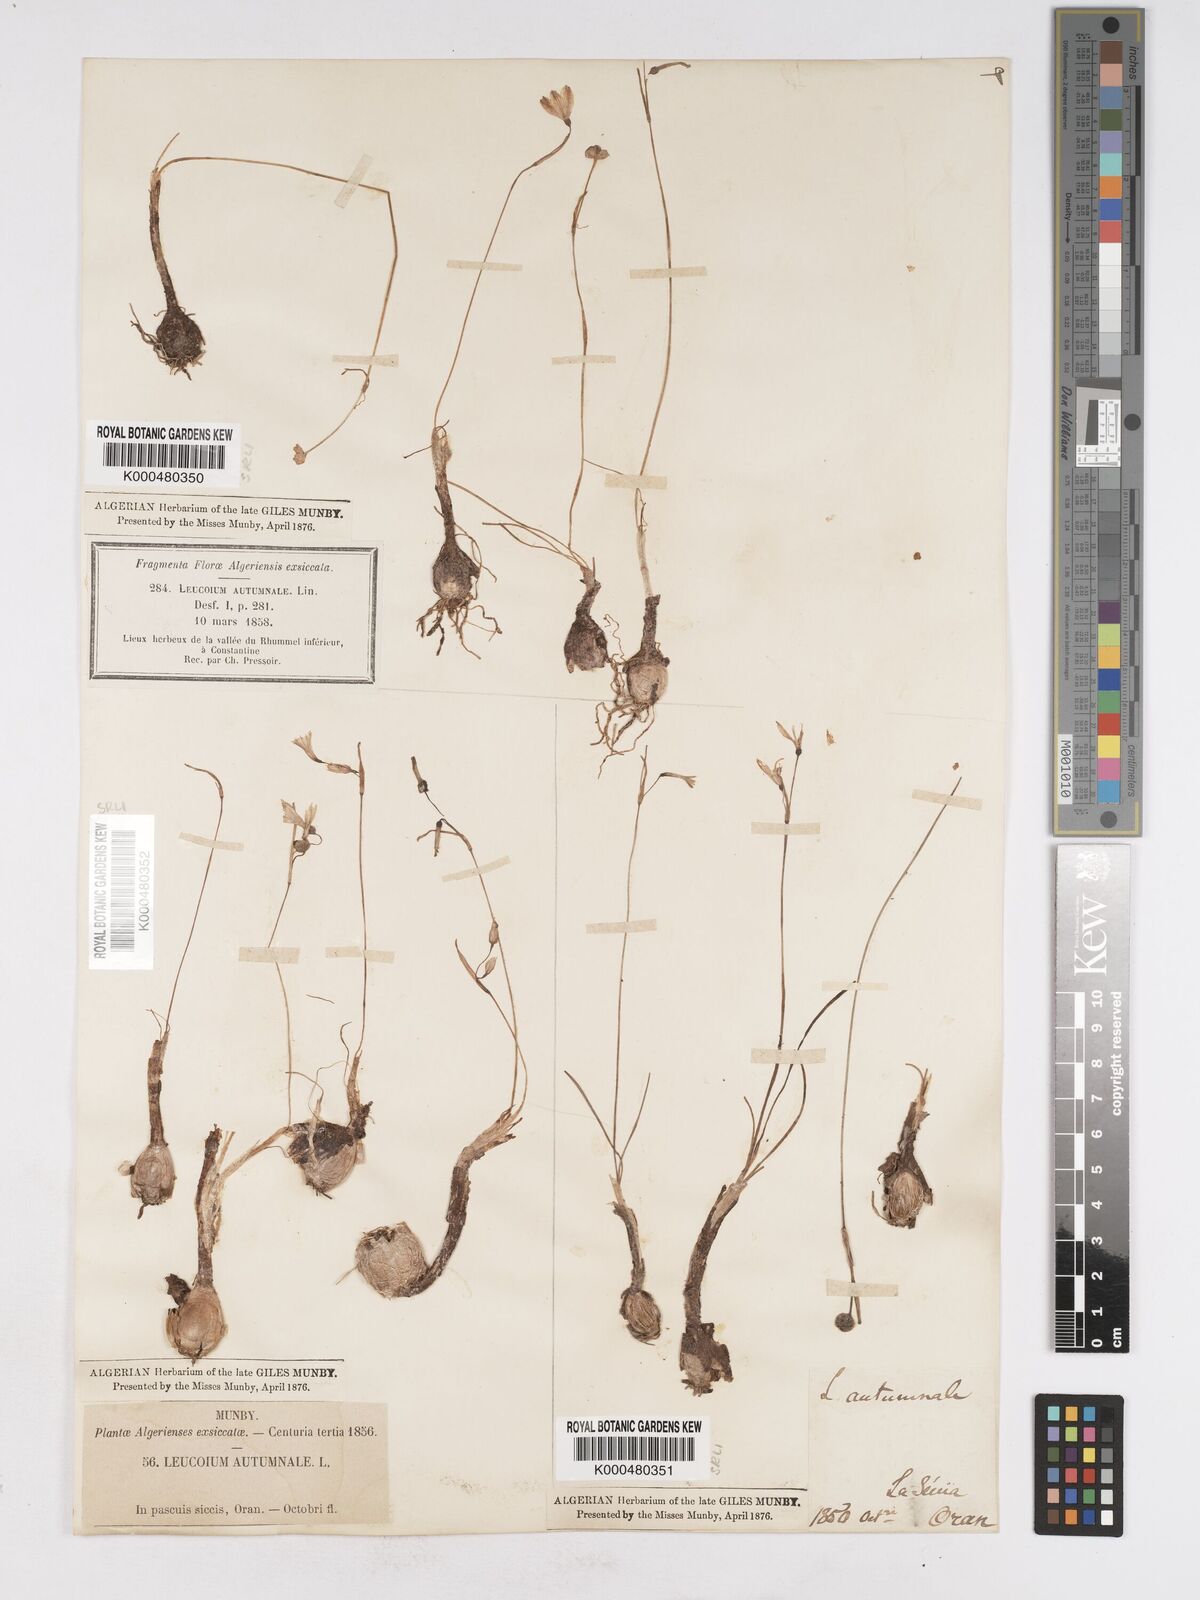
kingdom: Plantae
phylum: Tracheophyta
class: Liliopsida
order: Asparagales
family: Amaryllidaceae
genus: Acis
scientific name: Acis autumnalis
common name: Autumn snowflake
